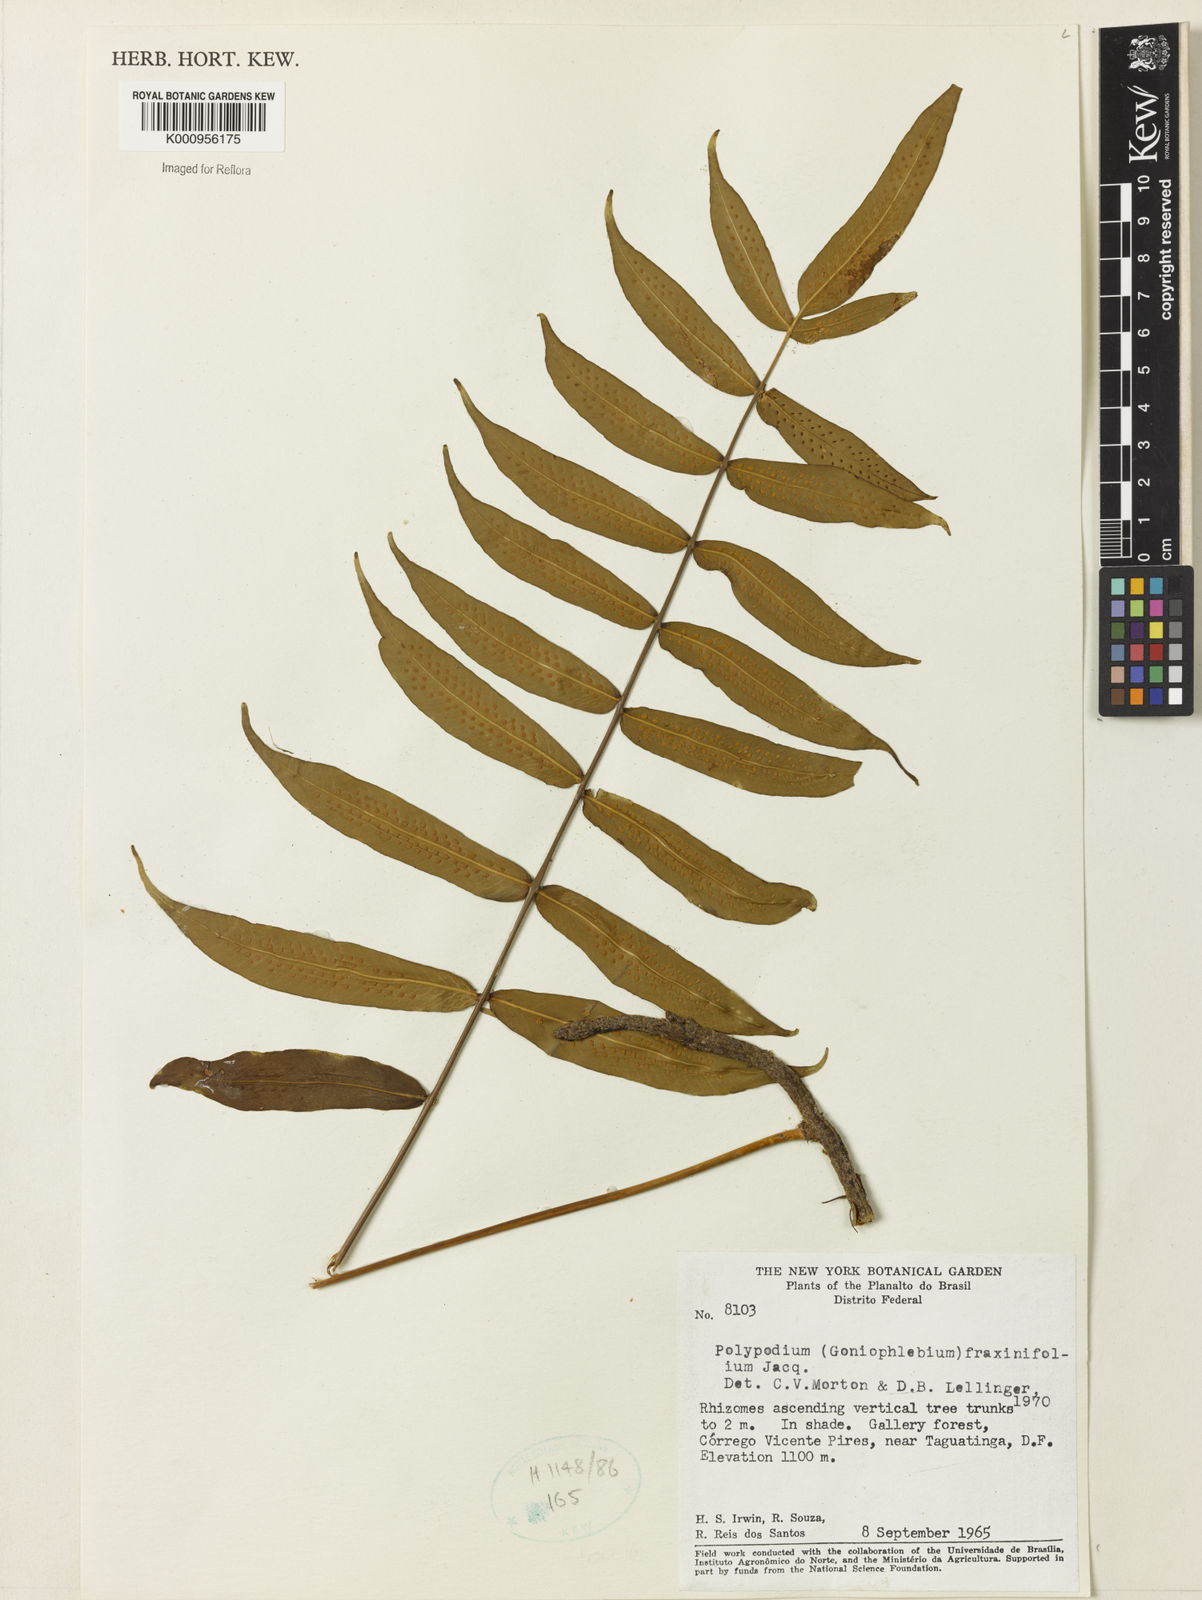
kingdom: Plantae
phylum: Tracheophyta
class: Polypodiopsida
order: Polypodiales
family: Polypodiaceae
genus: Serpocaulon
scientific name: Serpocaulon fraxinifolium
